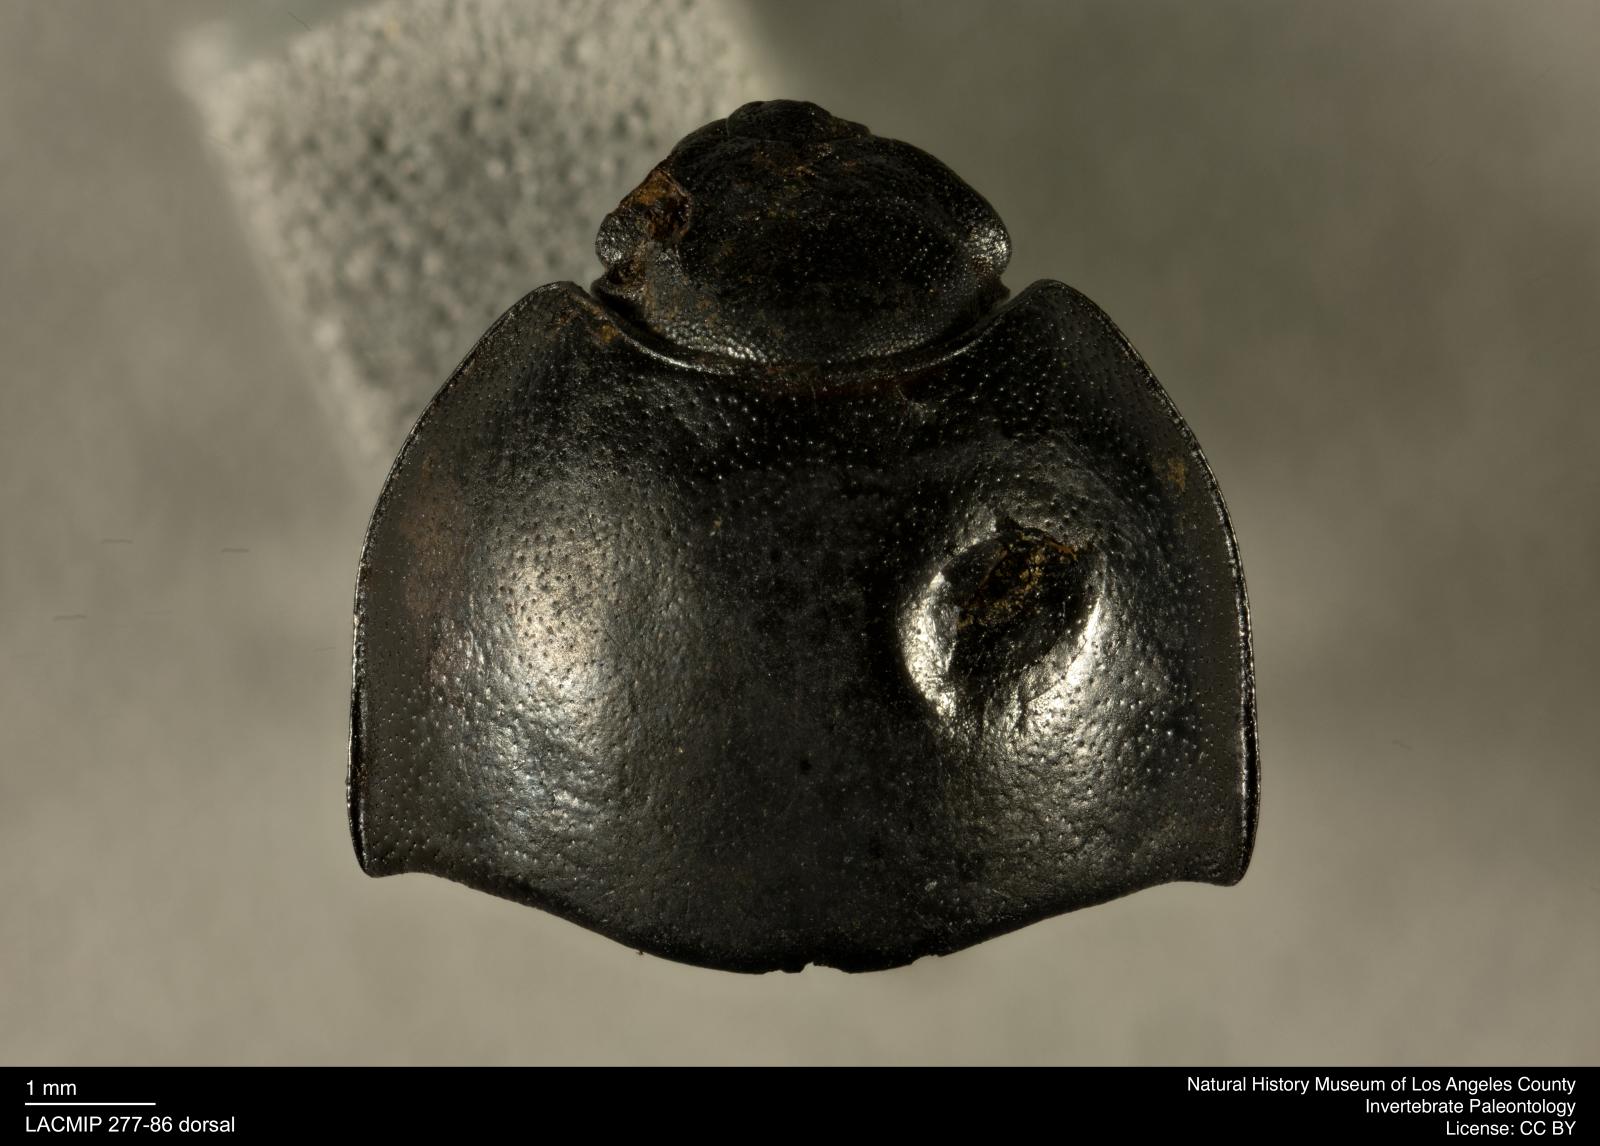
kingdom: Animalia
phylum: Arthropoda
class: Insecta
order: Coleoptera
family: Tenebrionidae
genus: Coniontis
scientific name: Coniontis abdominalis
